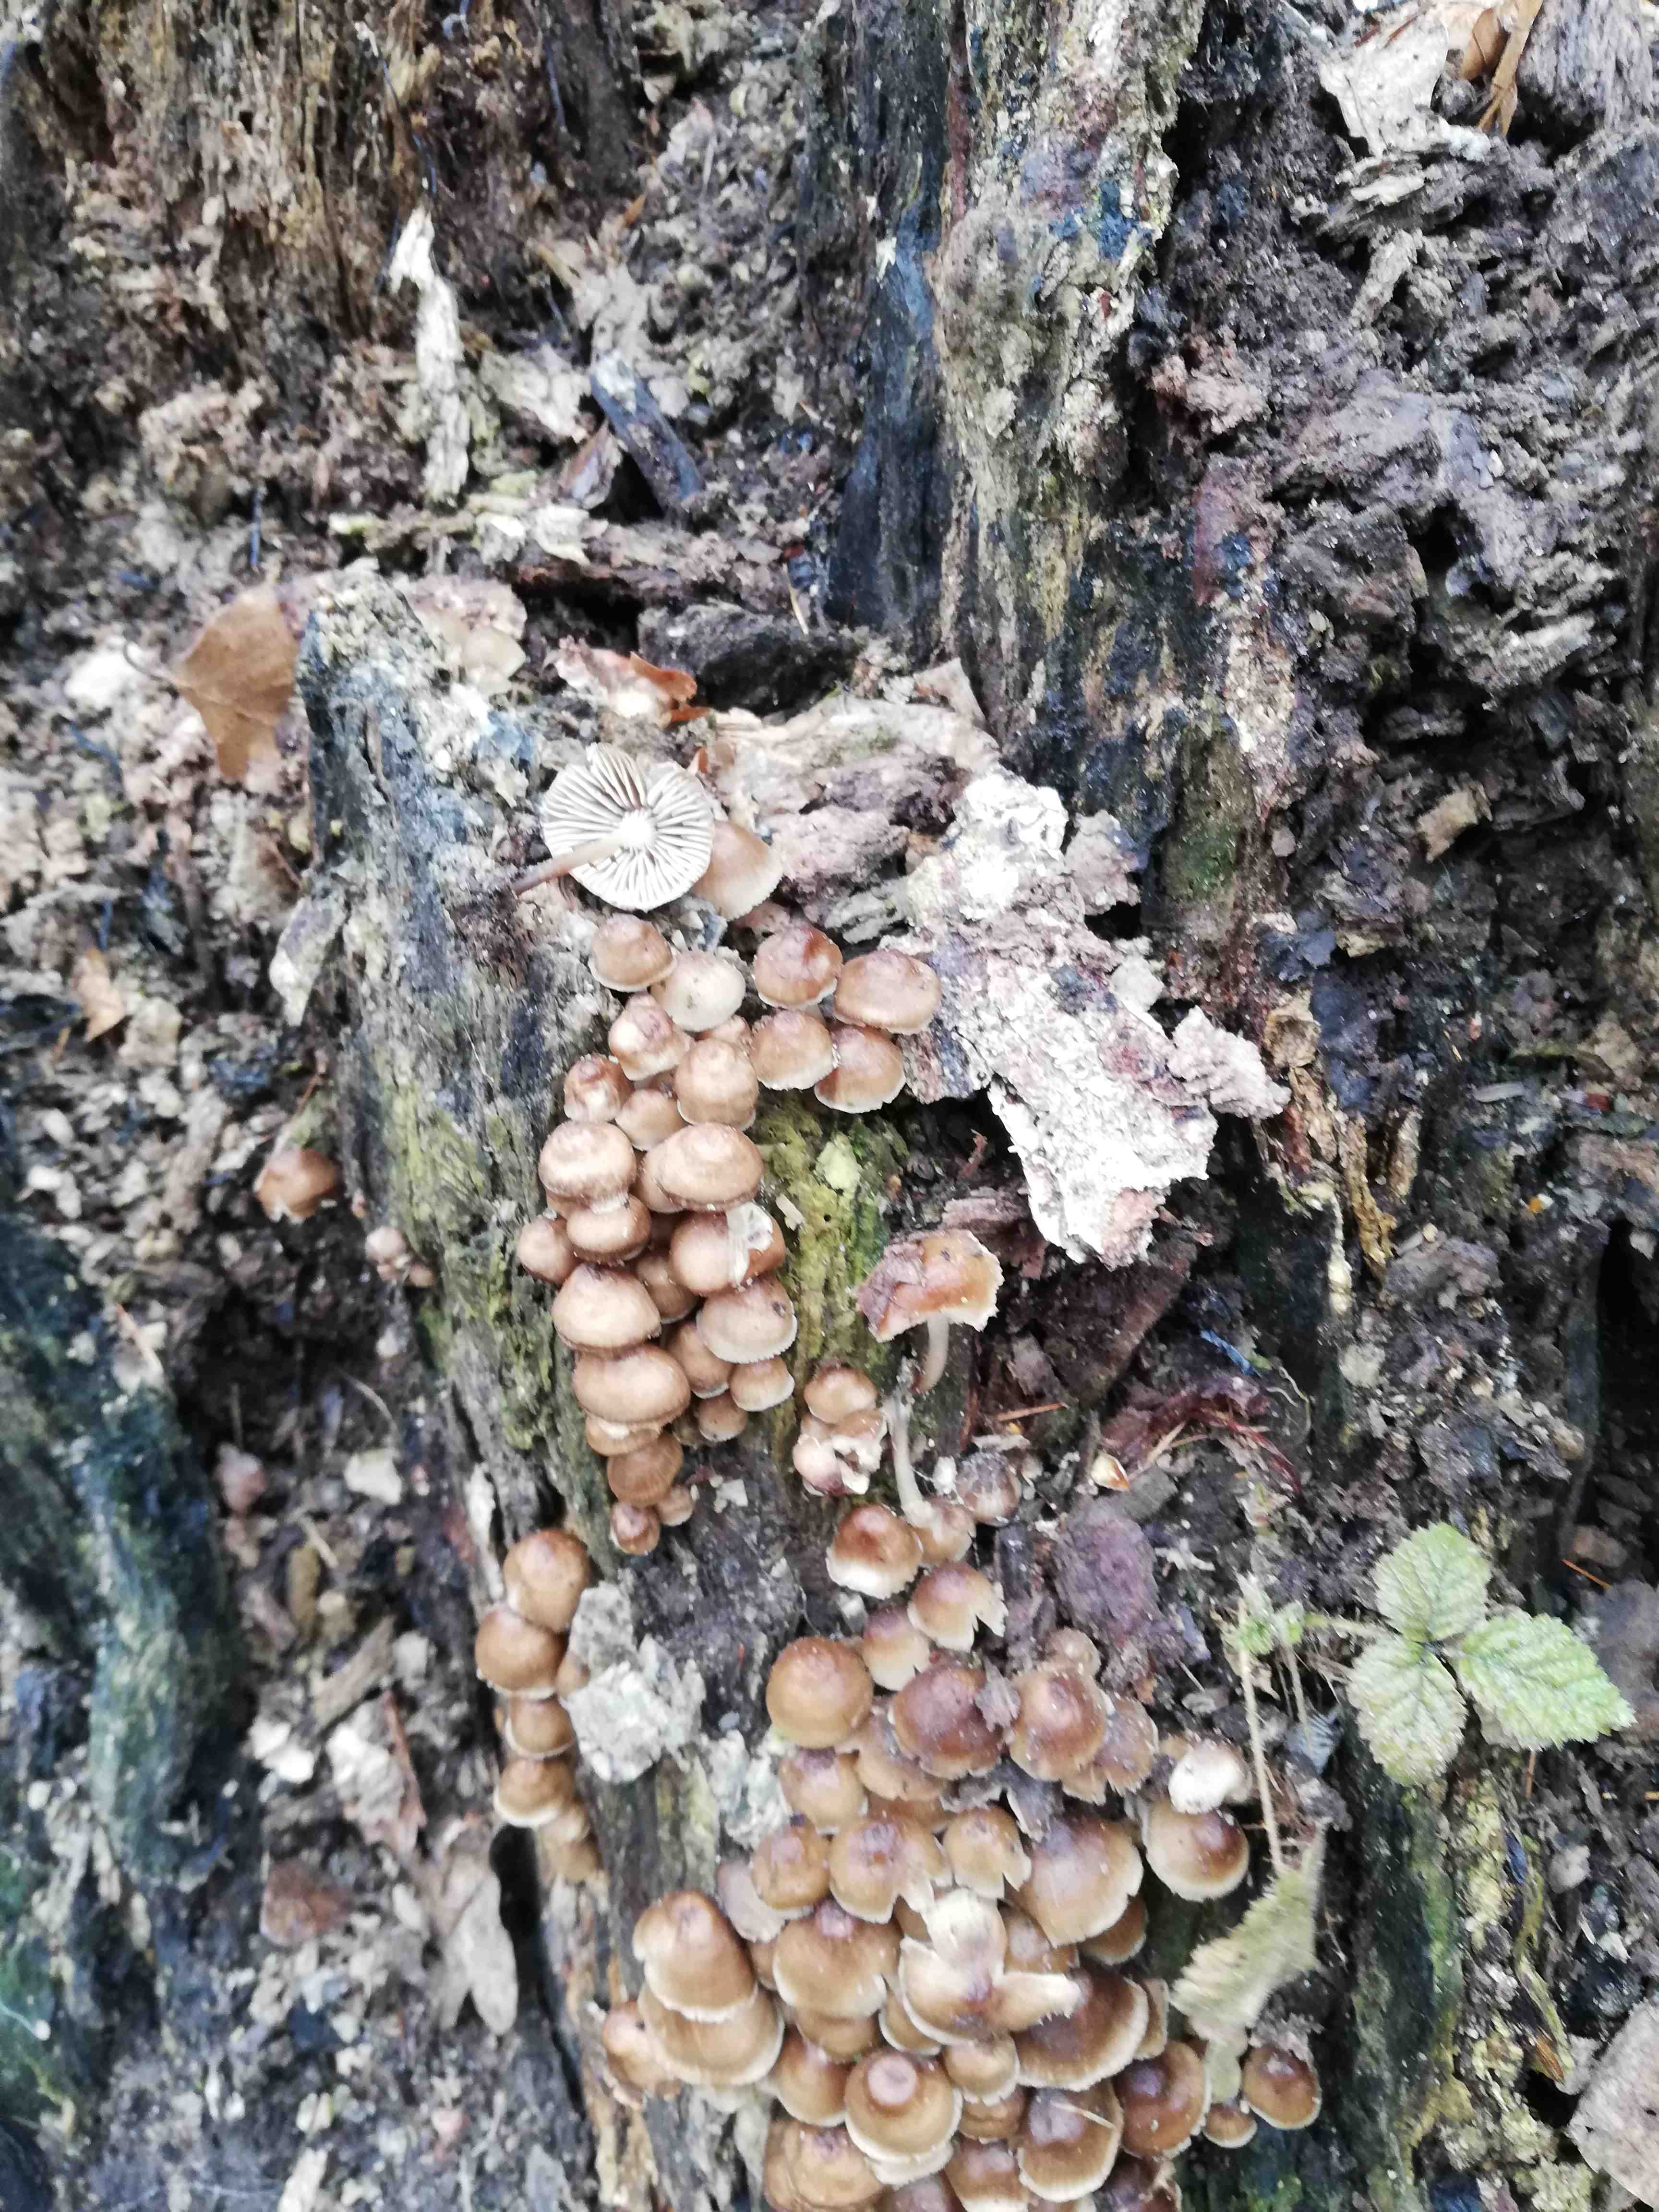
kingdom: Fungi
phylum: Basidiomycota
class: Agaricomycetes
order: Agaricales
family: Mycenaceae
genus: Mycena
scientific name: Mycena tintinnabulum
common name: vinter-huesvamp
